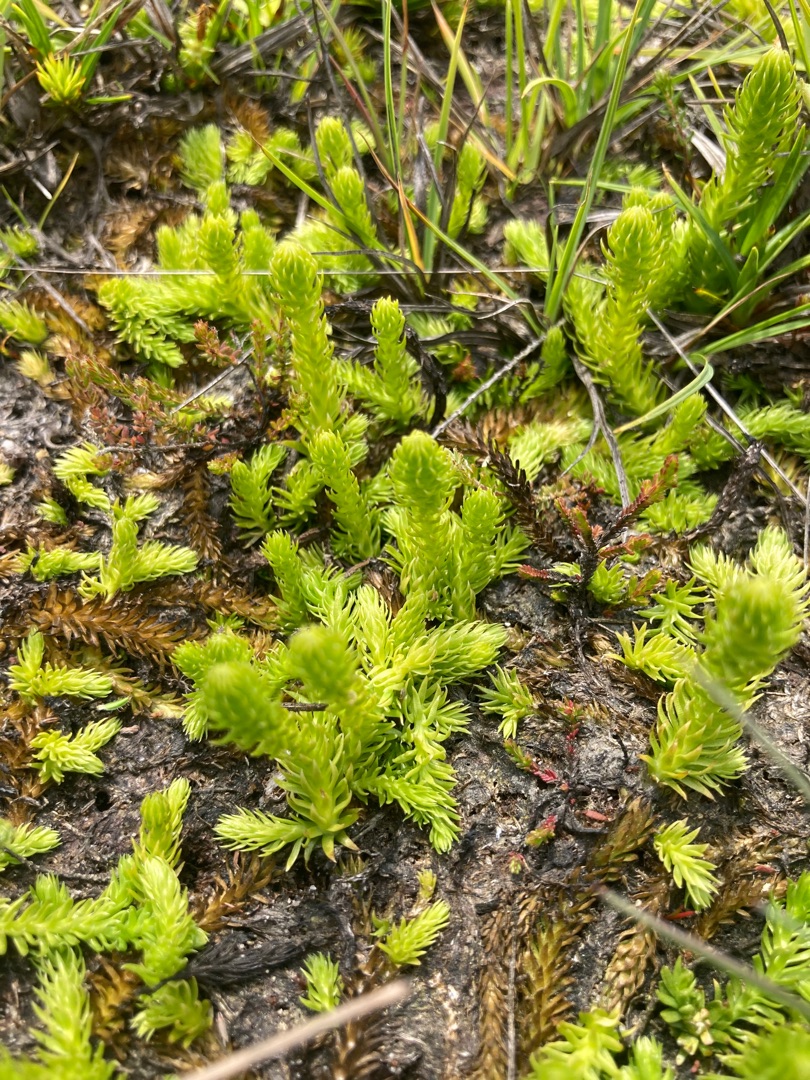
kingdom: Plantae
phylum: Tracheophyta
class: Lycopodiopsida
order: Lycopodiales
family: Lycopodiaceae
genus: Lycopodiella
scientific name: Lycopodiella inundata
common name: Liden ulvefod
